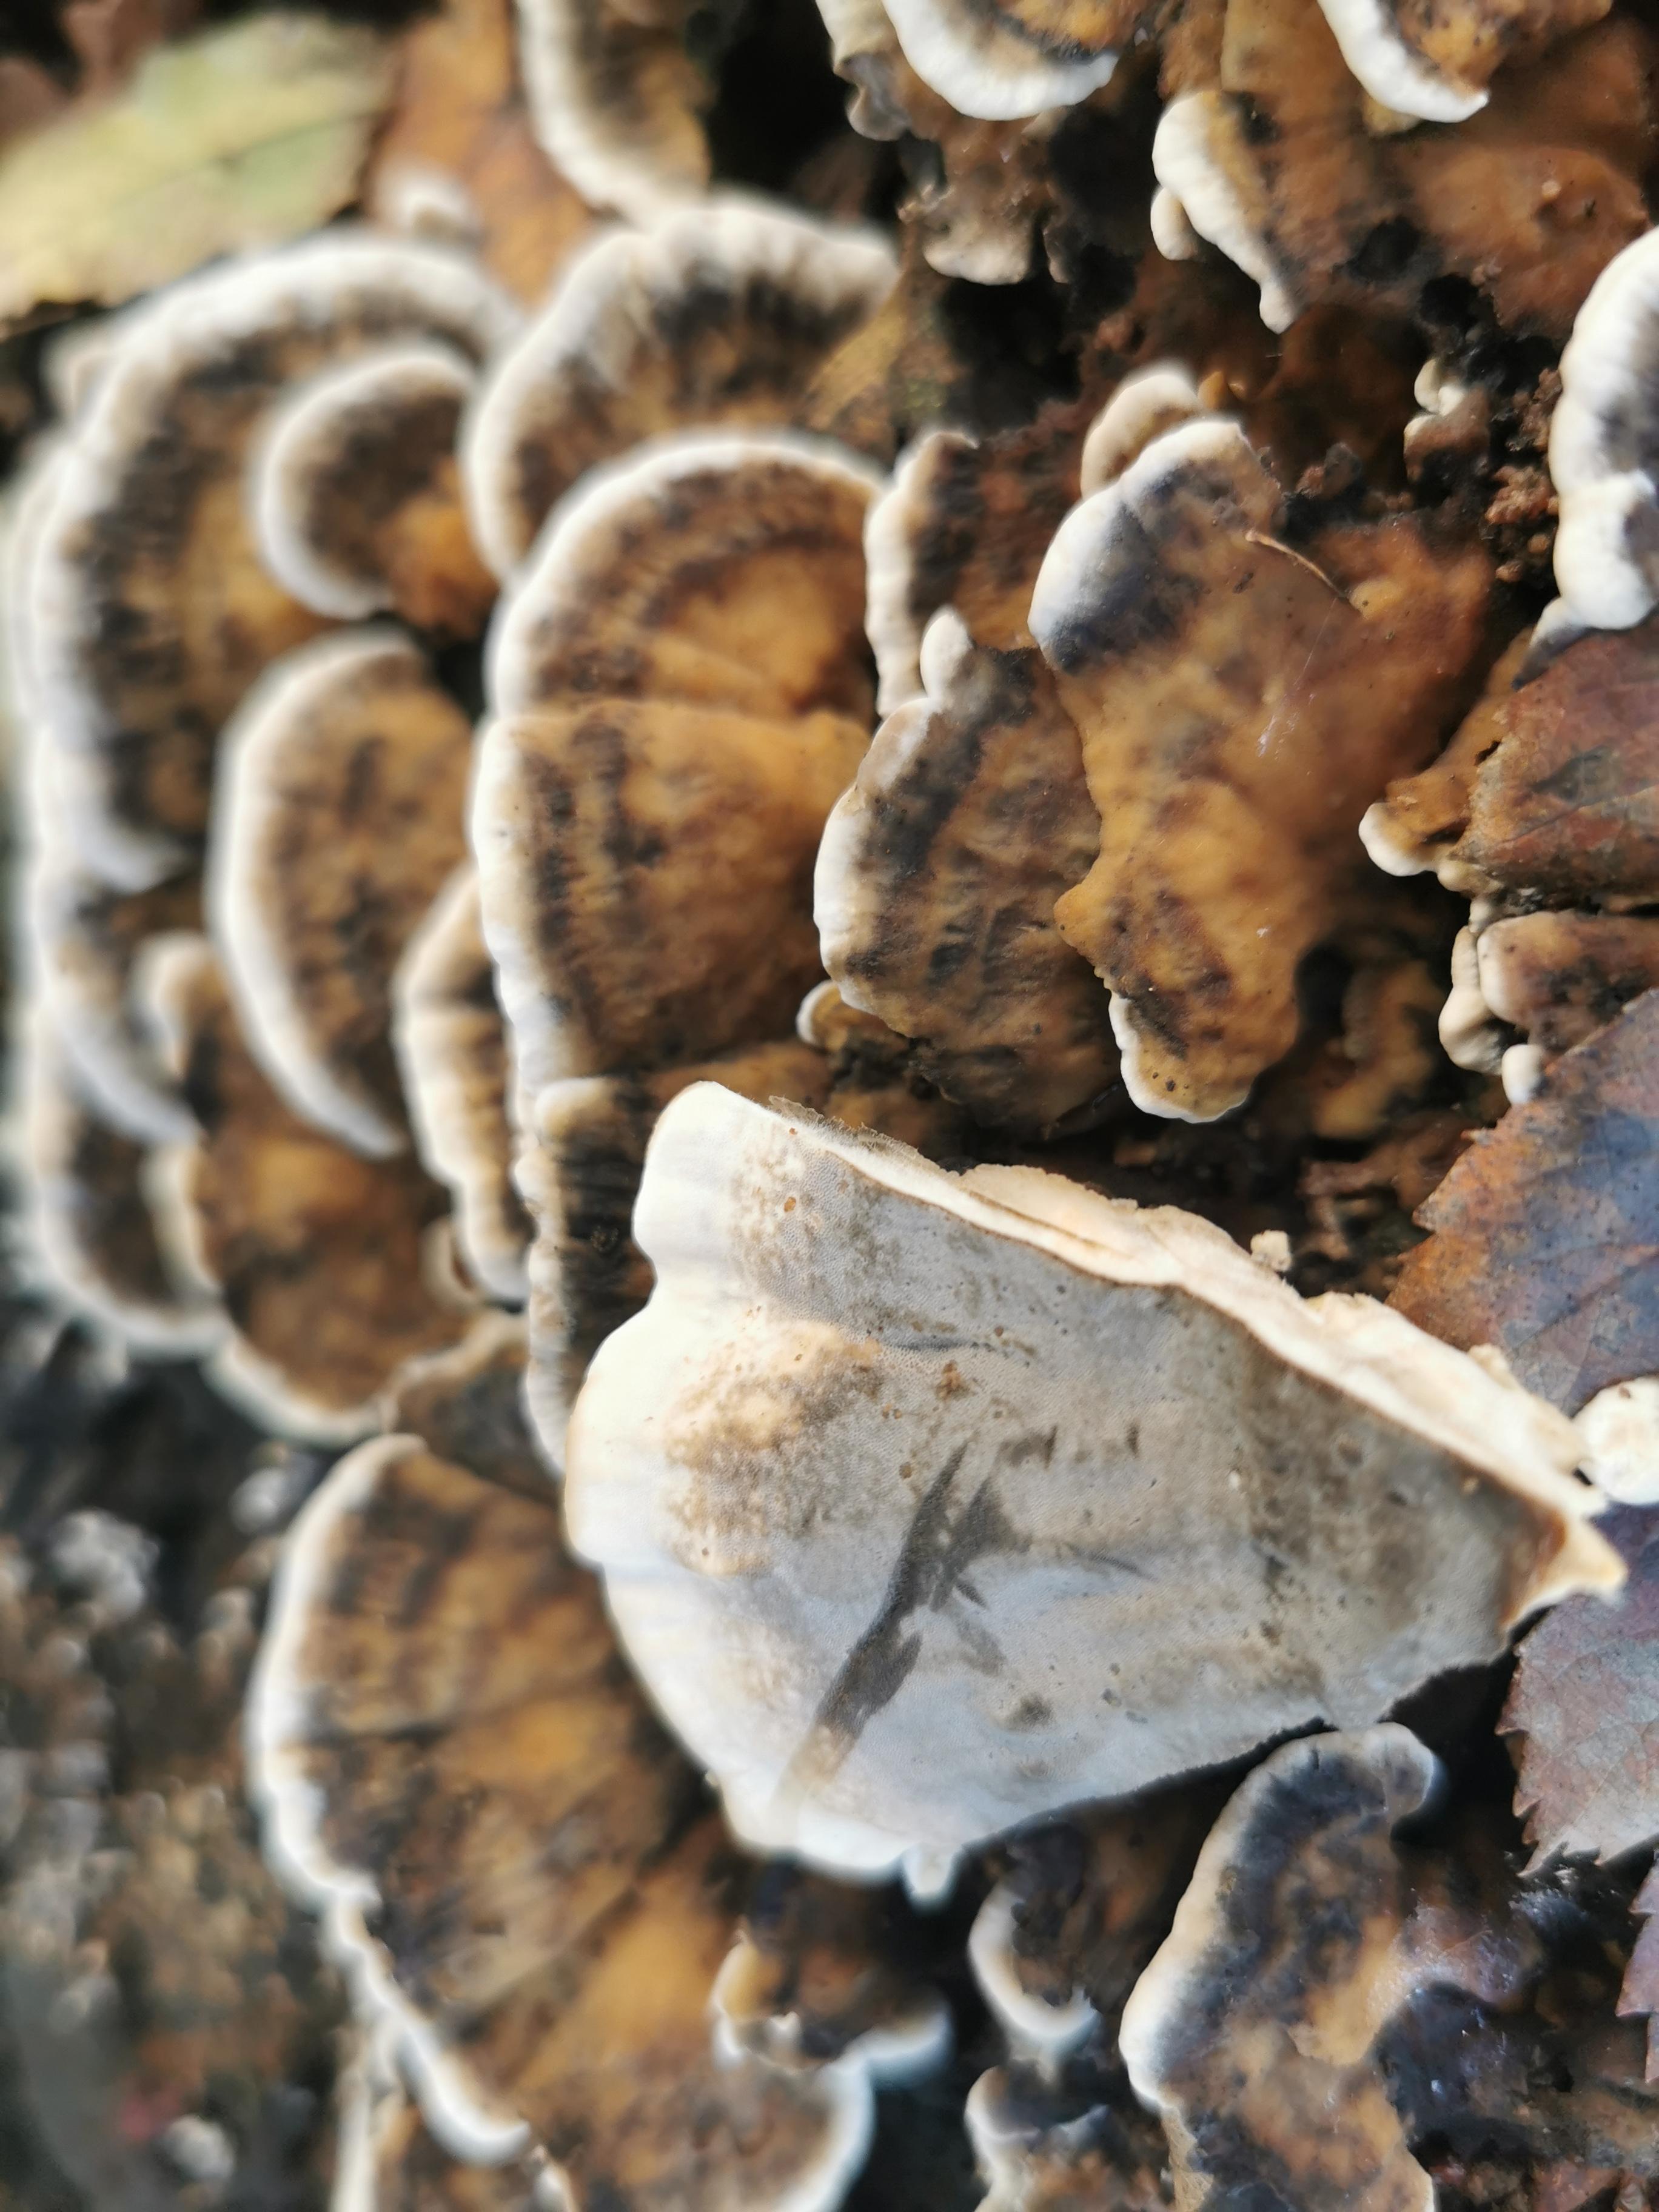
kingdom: Fungi
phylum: Basidiomycota
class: Agaricomycetes
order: Polyporales
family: Phanerochaetaceae
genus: Bjerkandera
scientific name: Bjerkandera adusta
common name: sveden sodporesvamp
